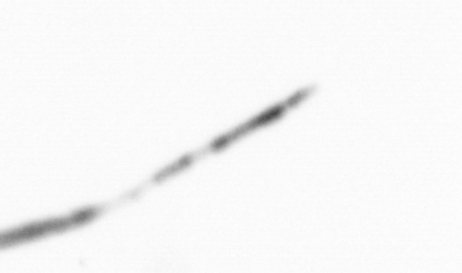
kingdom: Chromista
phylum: Ochrophyta
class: Bacillariophyceae
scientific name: Bacillariophyceae
